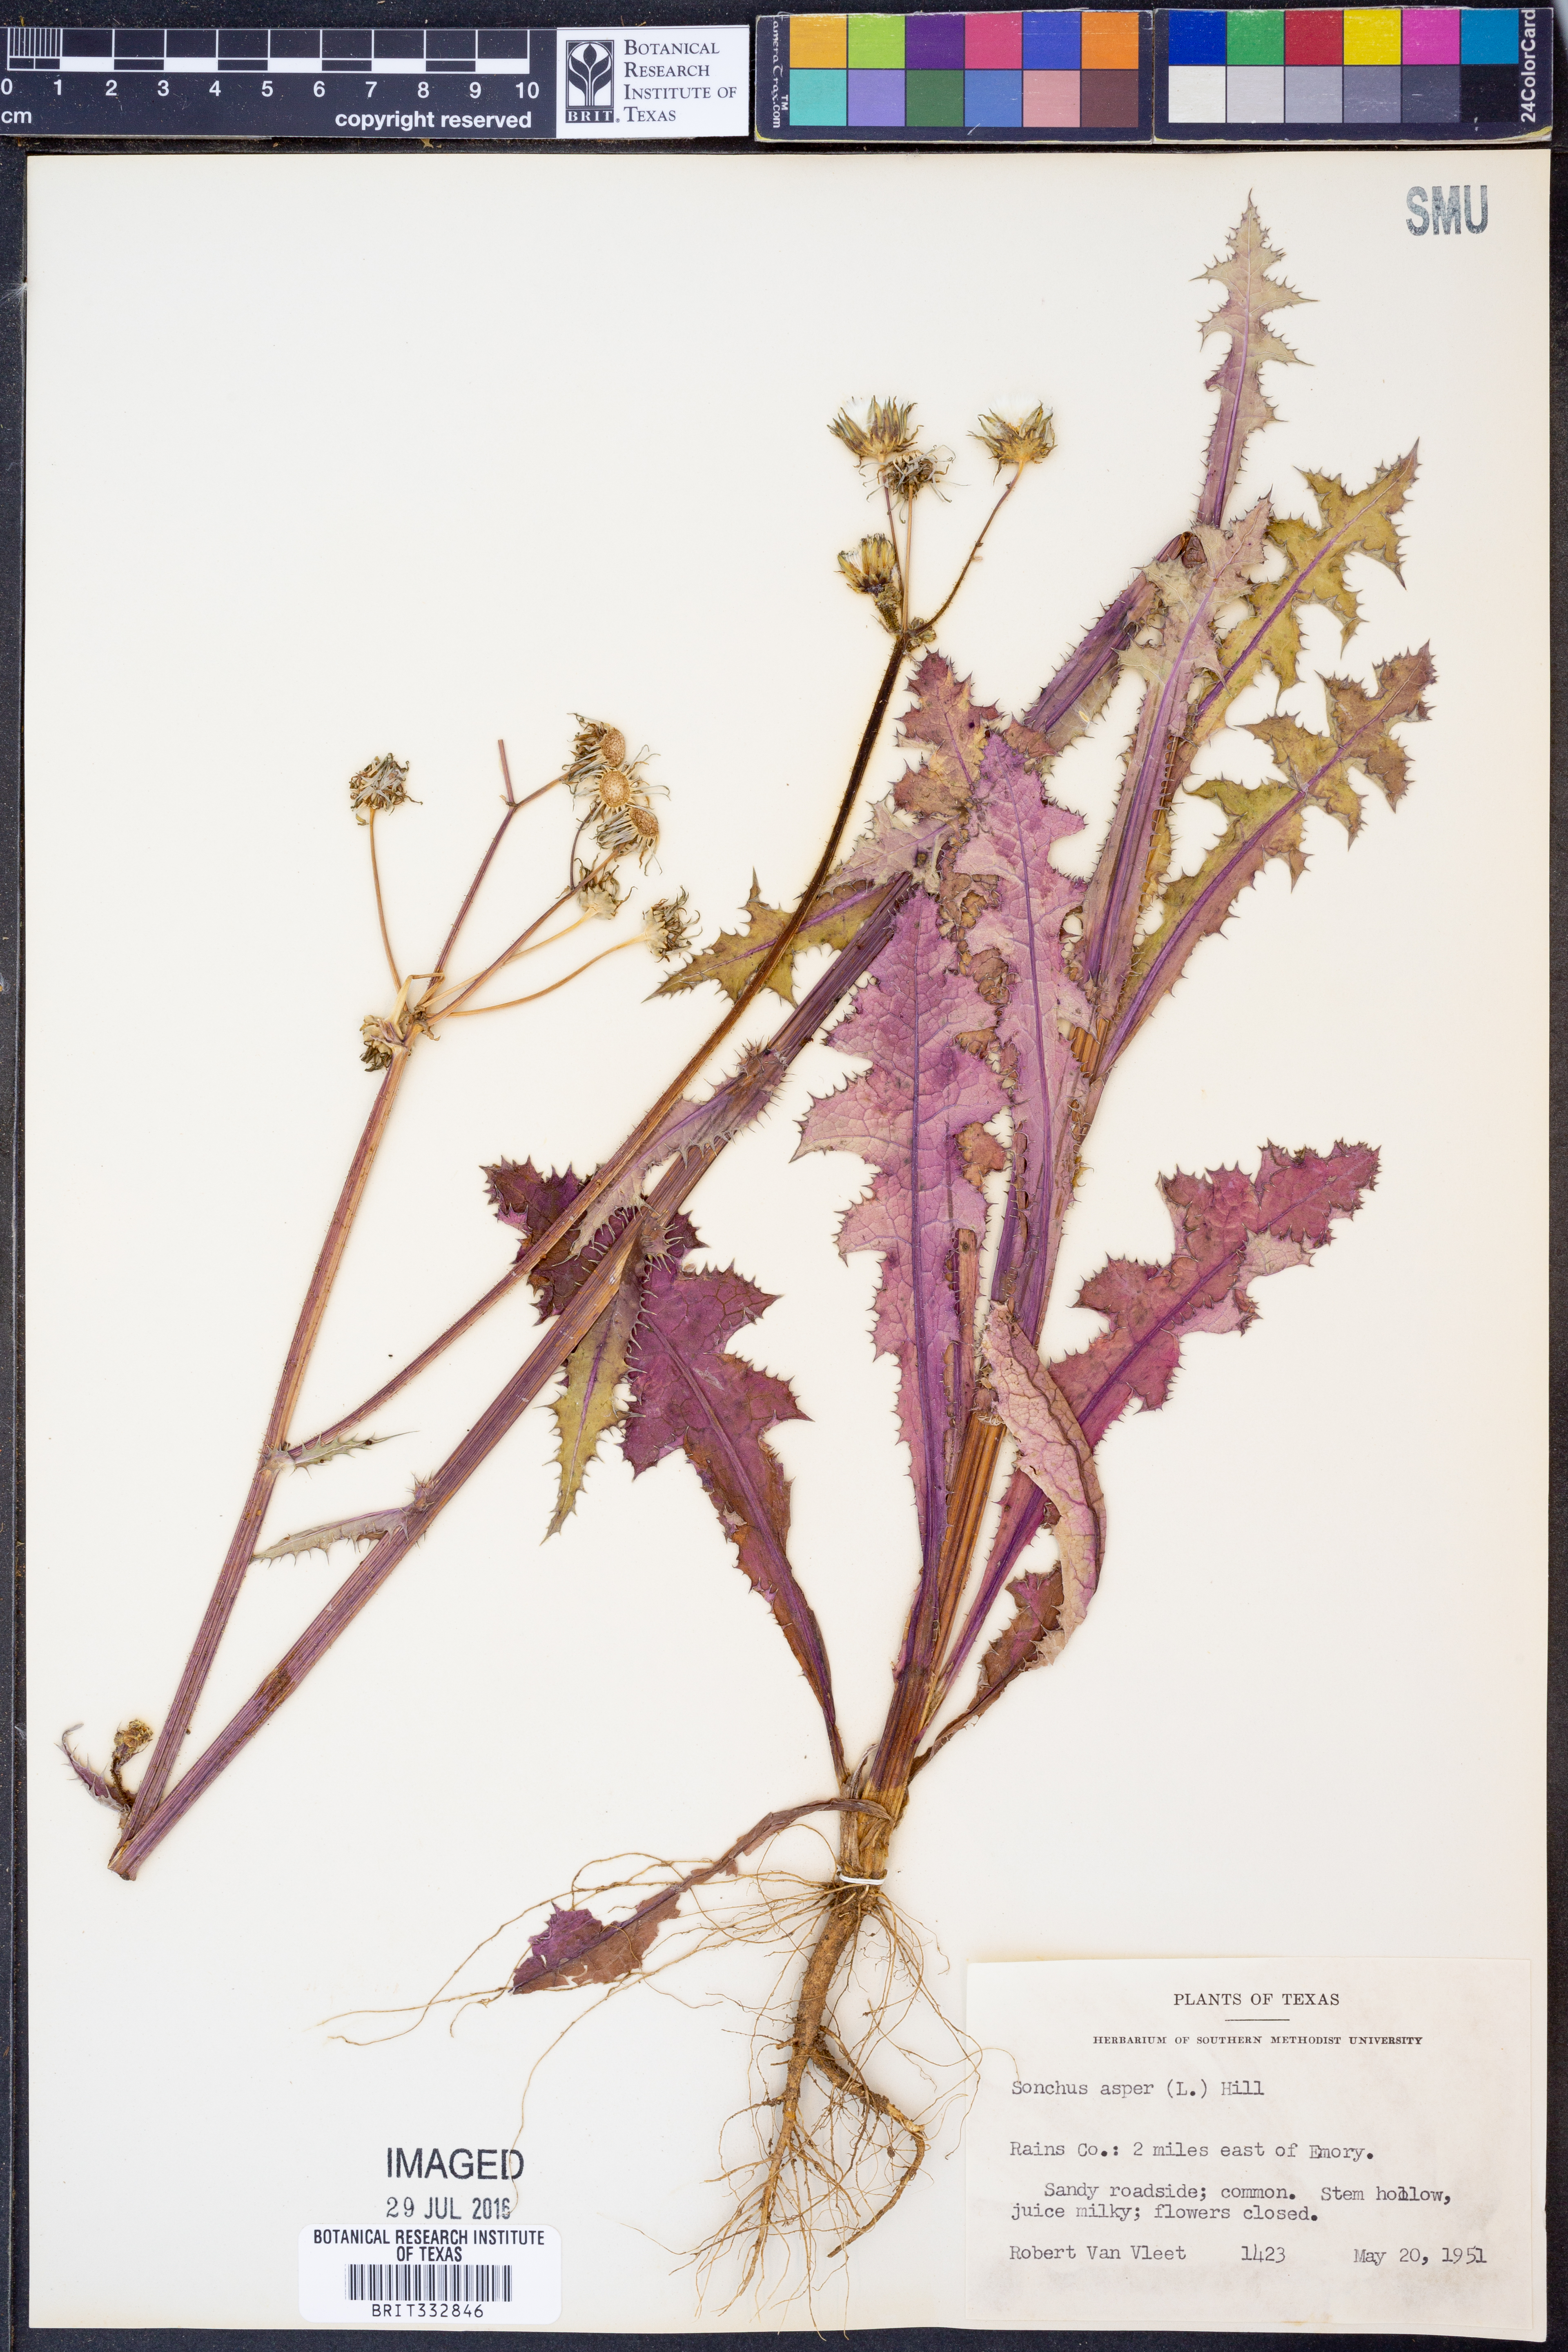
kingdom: Plantae
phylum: Tracheophyta
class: Magnoliopsida
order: Asterales
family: Asteraceae
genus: Sonchus
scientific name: Sonchus asper
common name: Prickly sow-thistle
